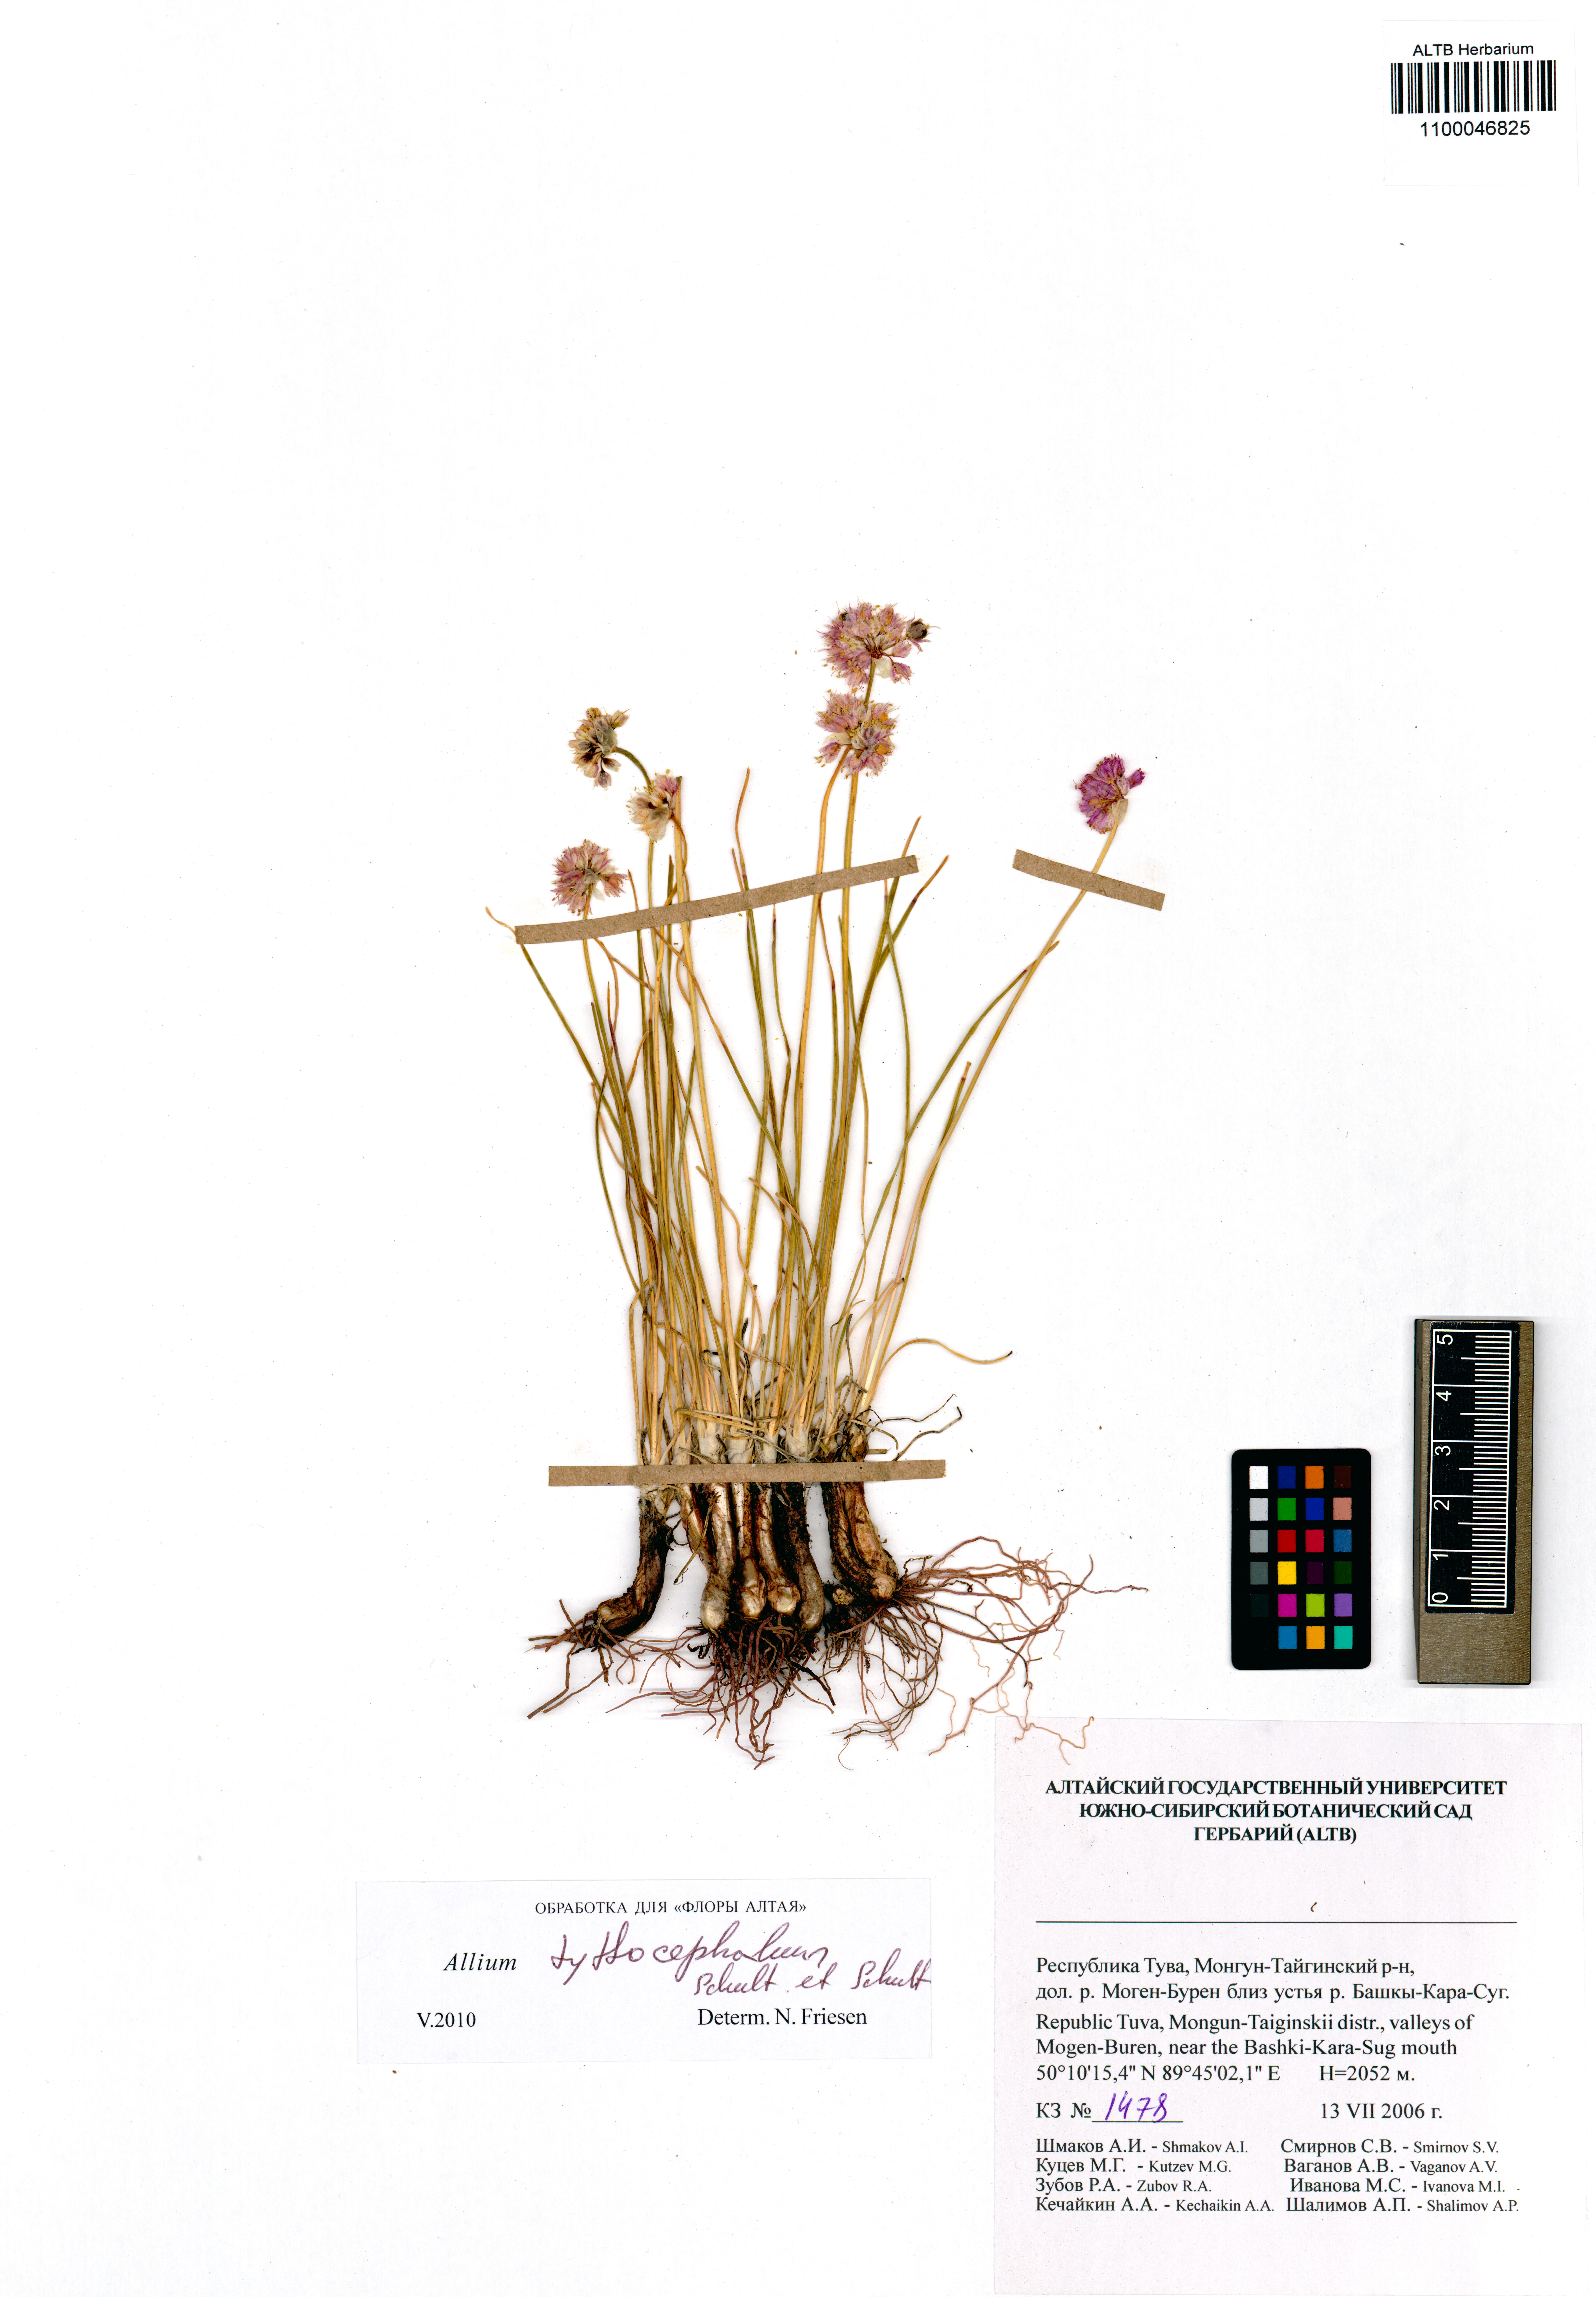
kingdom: Plantae
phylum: Tracheophyta
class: Liliopsida
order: Asparagales
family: Amaryllidaceae
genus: Allium
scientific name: Allium tytthocephalum
